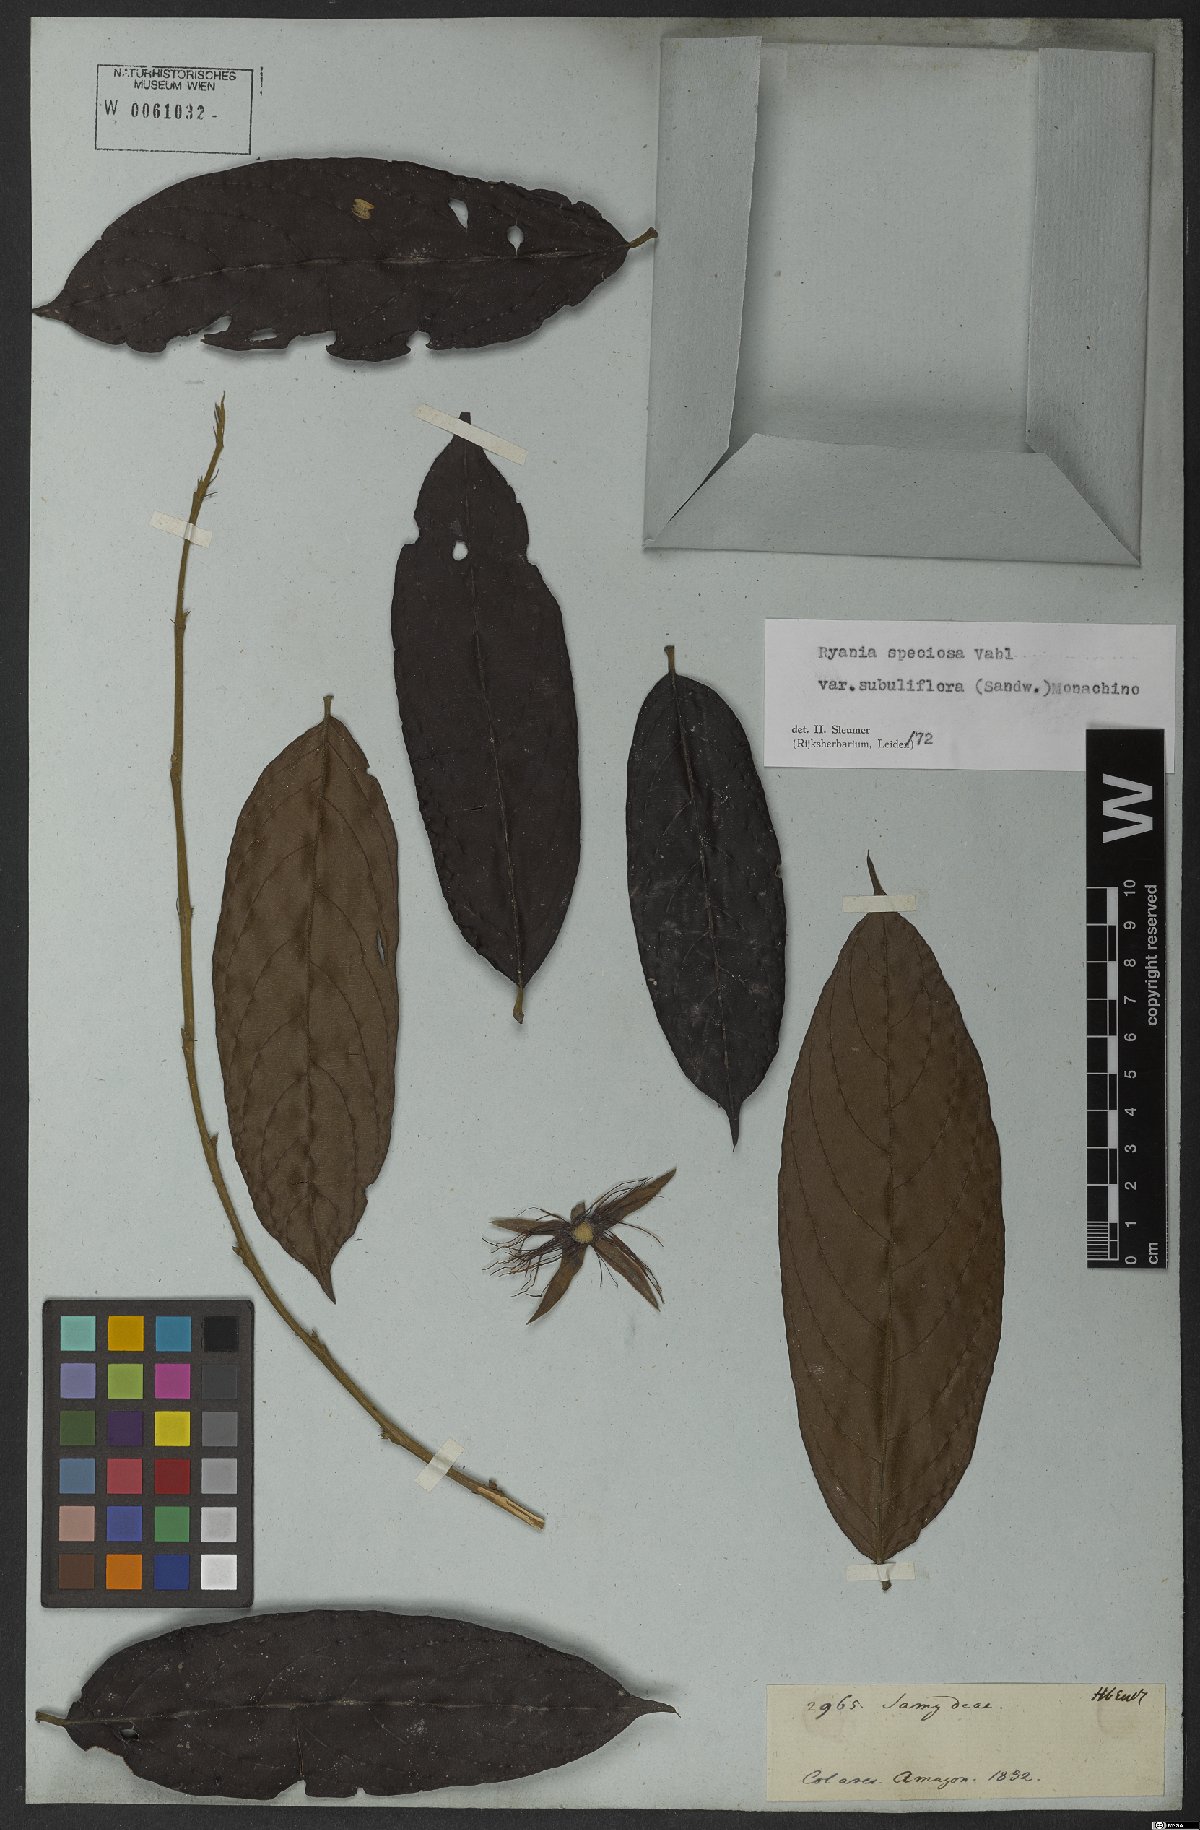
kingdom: Plantae
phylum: Tracheophyta
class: Magnoliopsida
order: Malpighiales
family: Salicaceae
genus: Ryania
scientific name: Ryania speciosa
